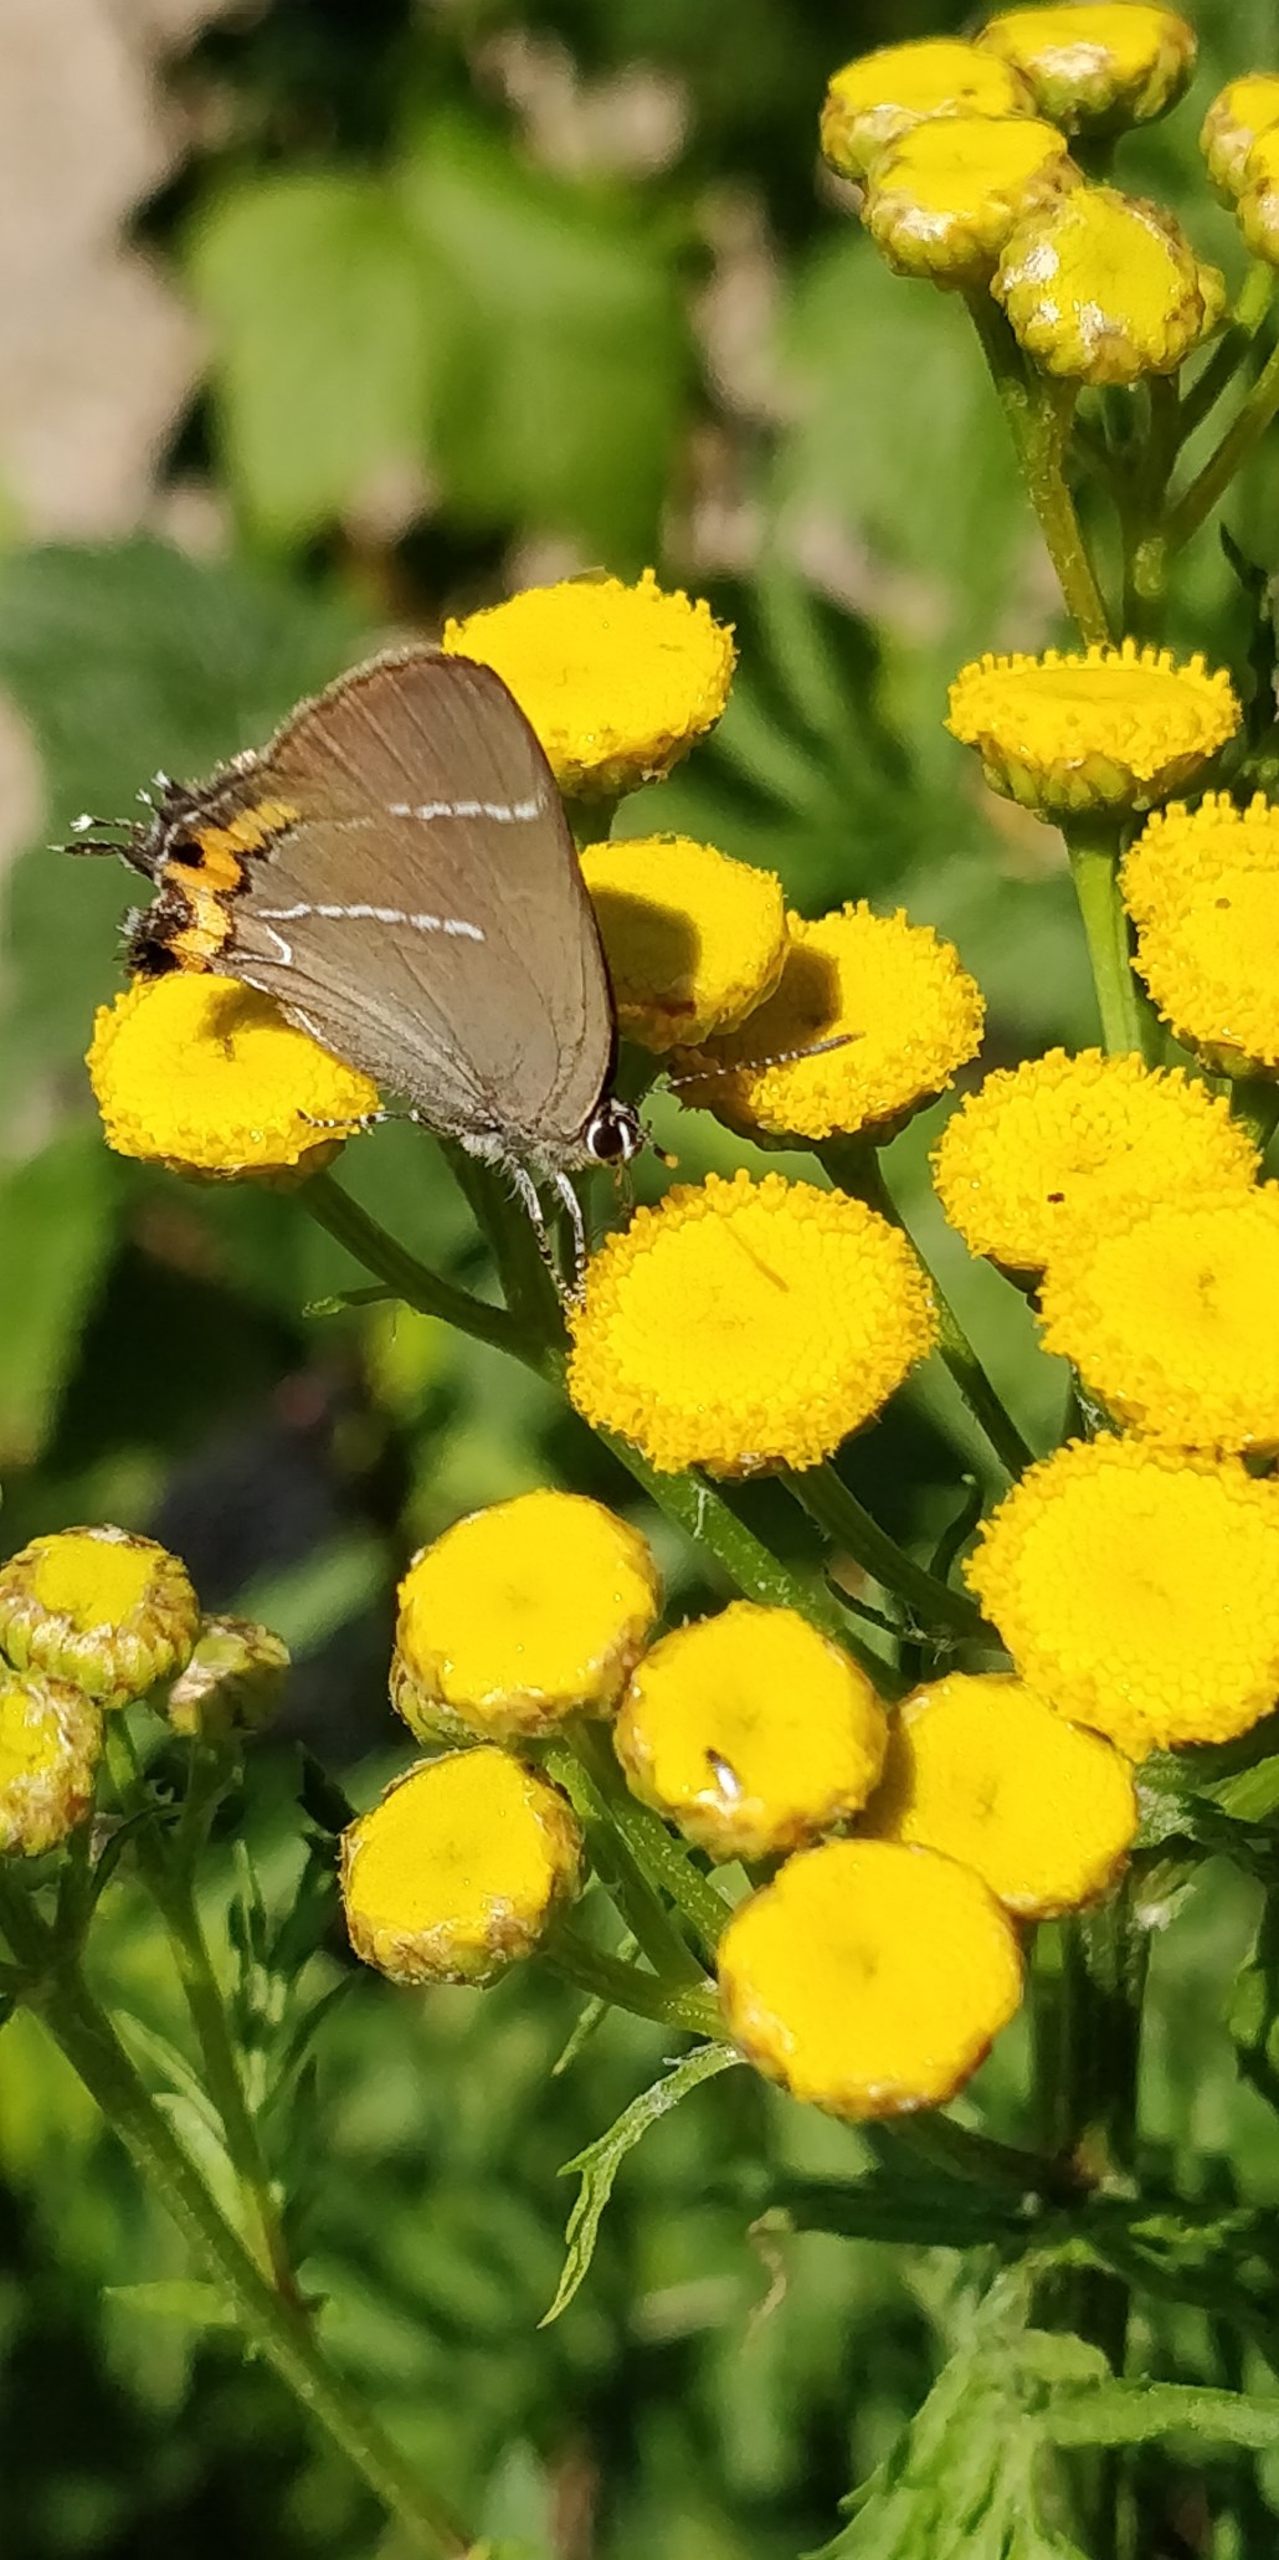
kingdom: Animalia
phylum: Arthropoda
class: Insecta
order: Lepidoptera
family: Lycaenidae
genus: Satyrium
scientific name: Satyrium w-album
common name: Det hvide W
